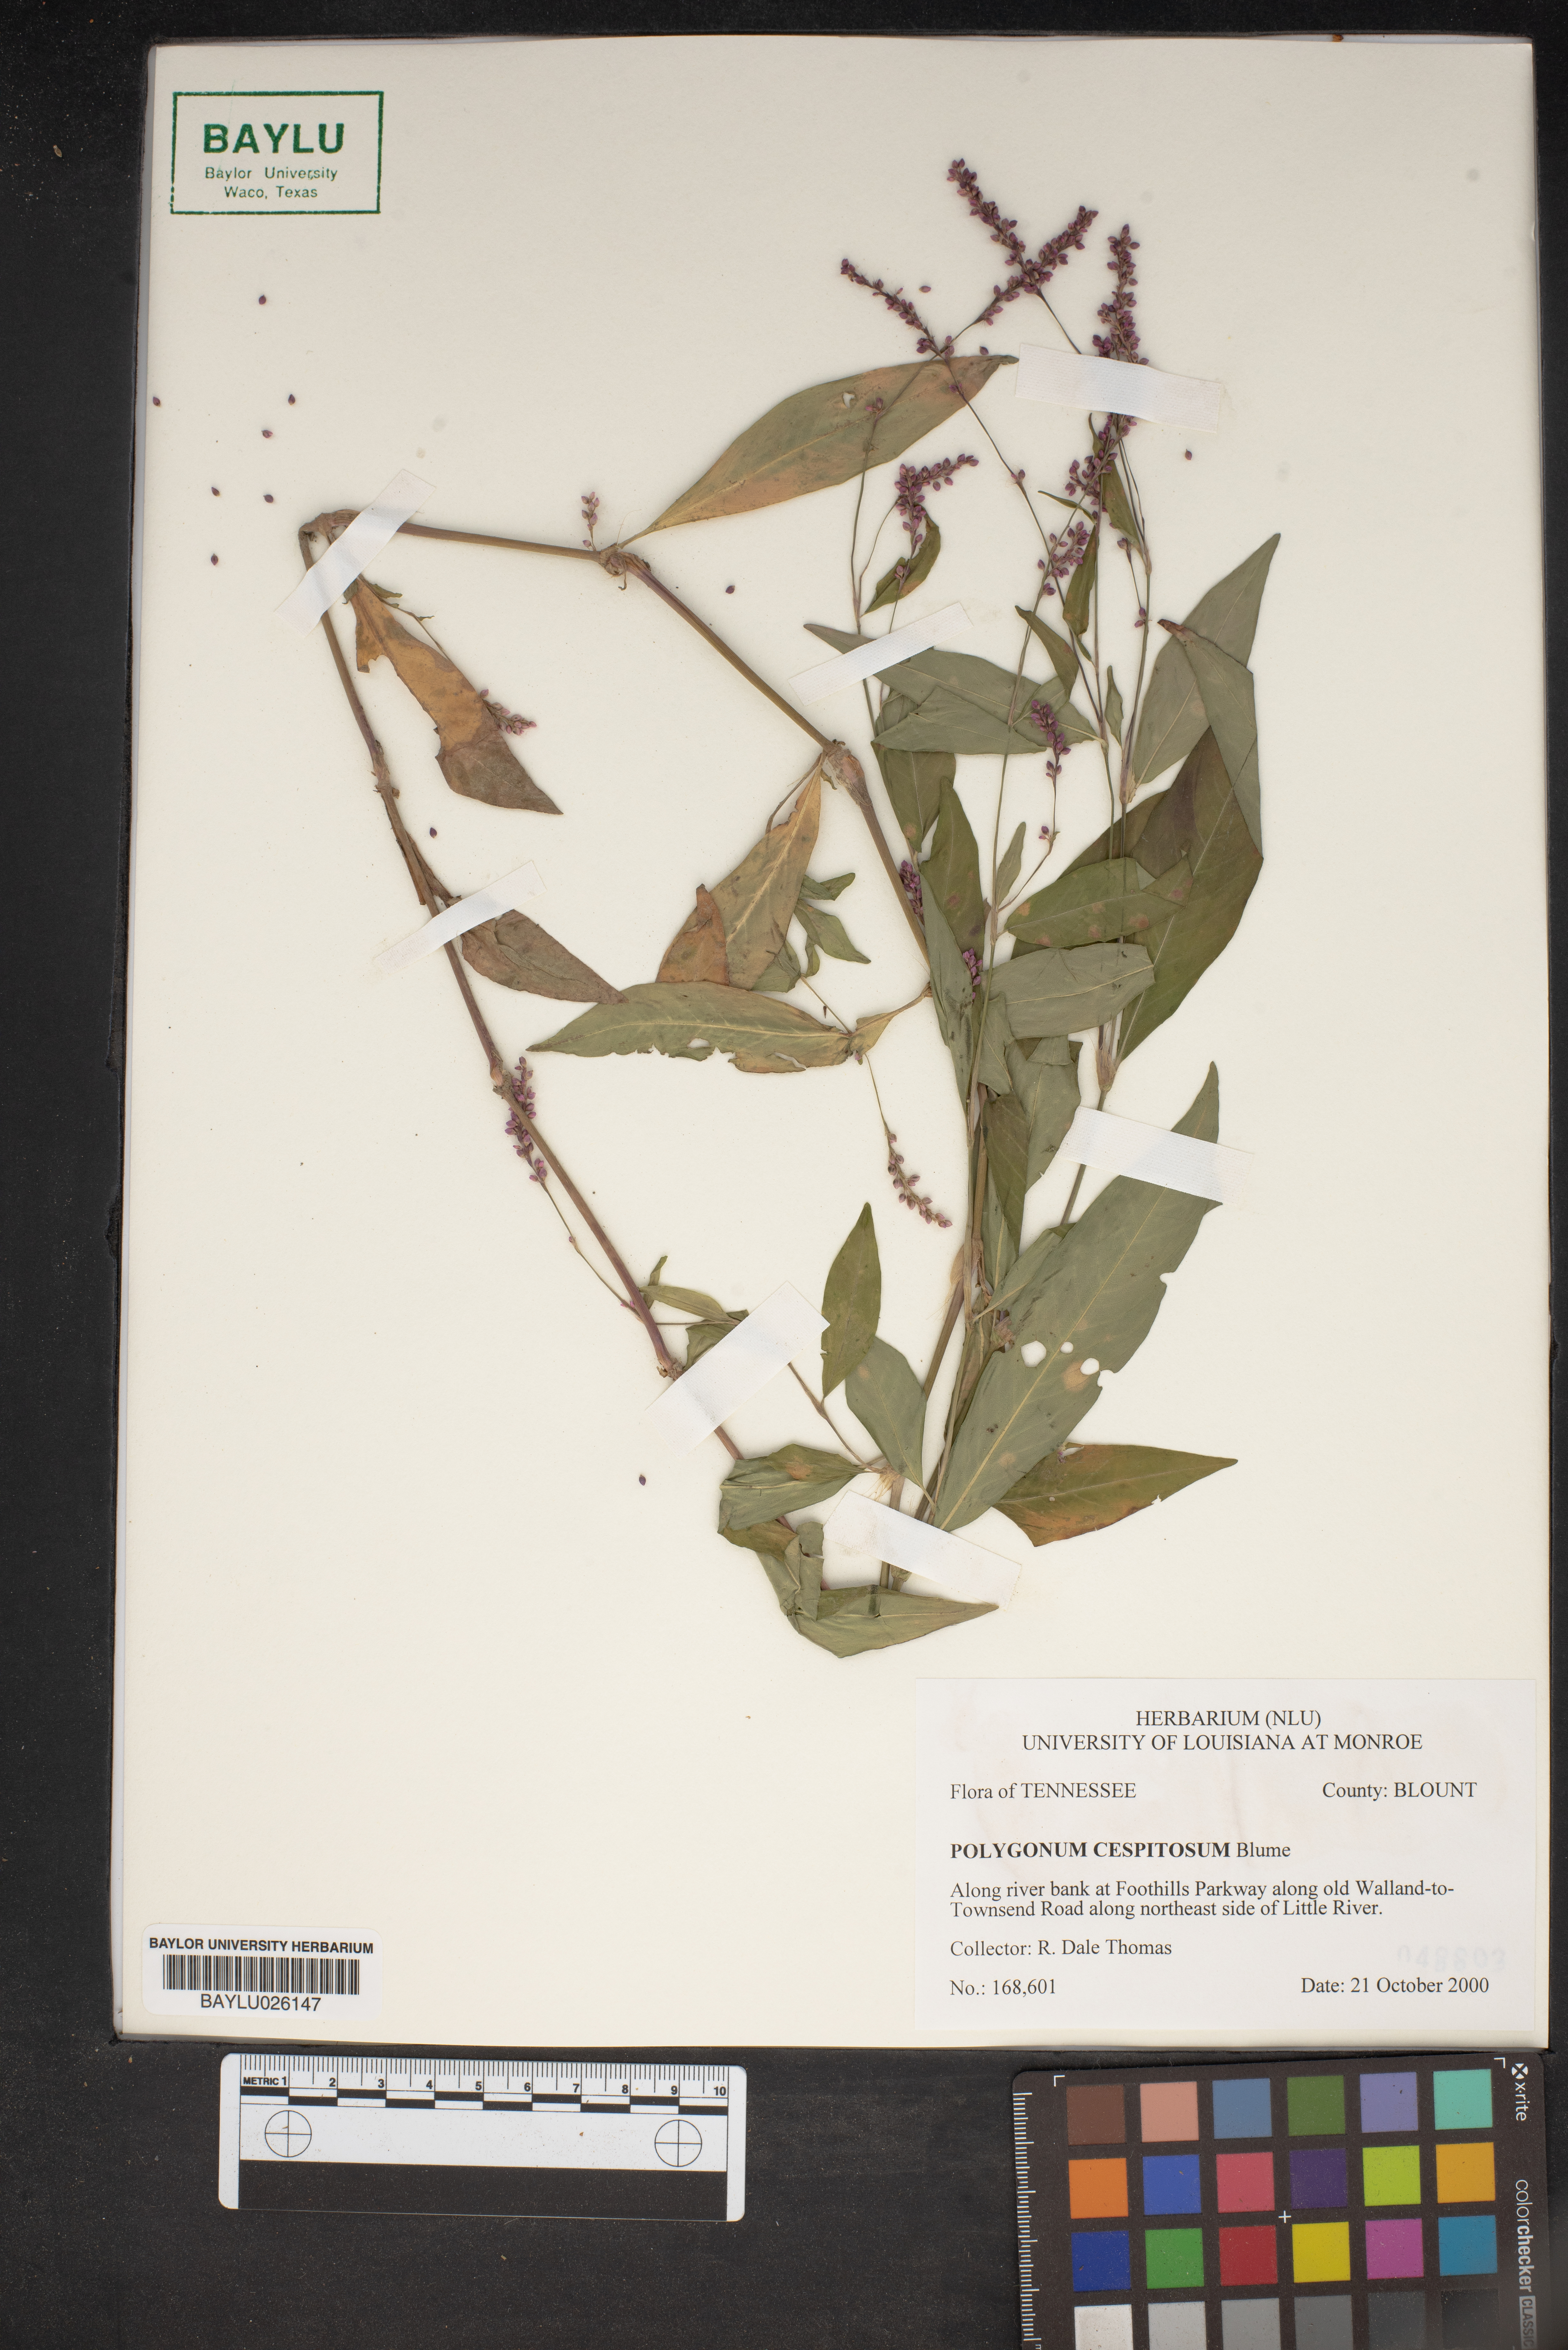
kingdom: Plantae
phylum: Tracheophyta
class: Magnoliopsida
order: Caryophyllales
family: Polygonaceae
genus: Persicaria
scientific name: Persicaria posumbu
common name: Oriental lady's thumb
